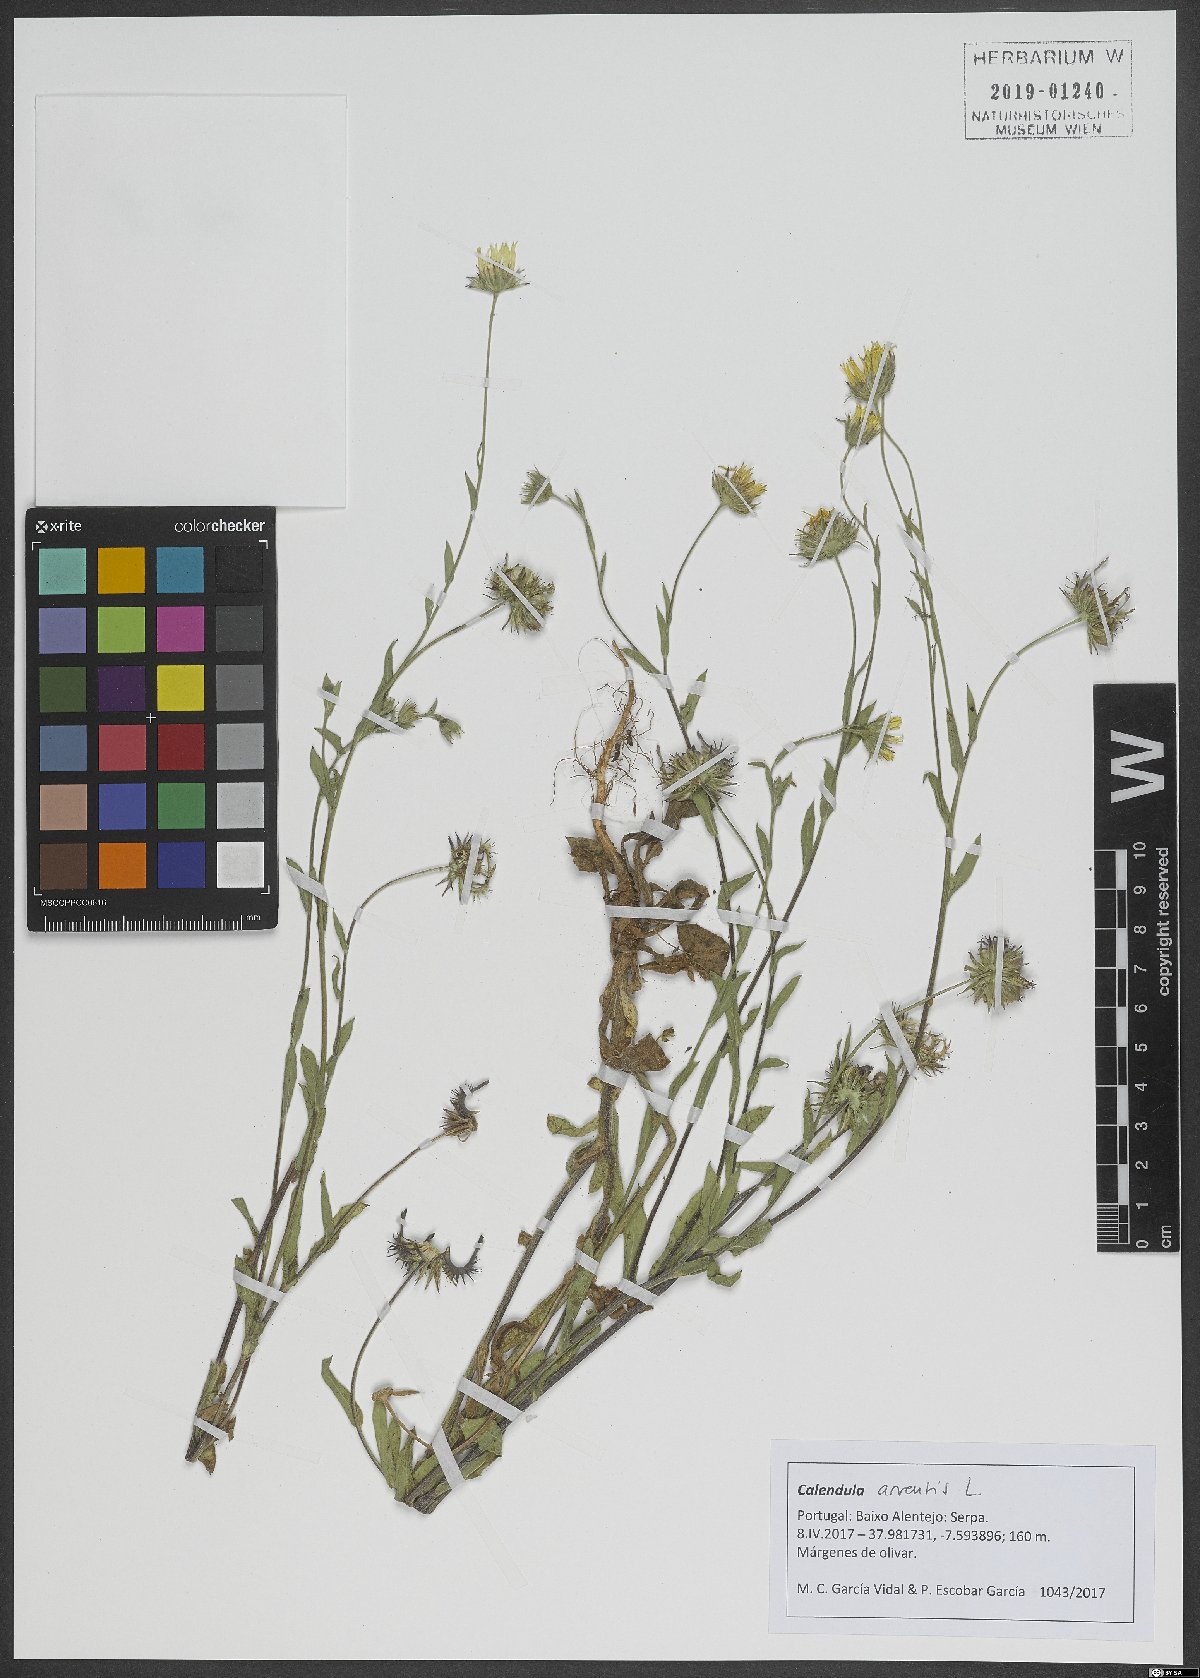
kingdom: Plantae
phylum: Tracheophyta
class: Magnoliopsida
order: Asterales
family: Asteraceae
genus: Calendula
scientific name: Calendula arvensis
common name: Field marigold
